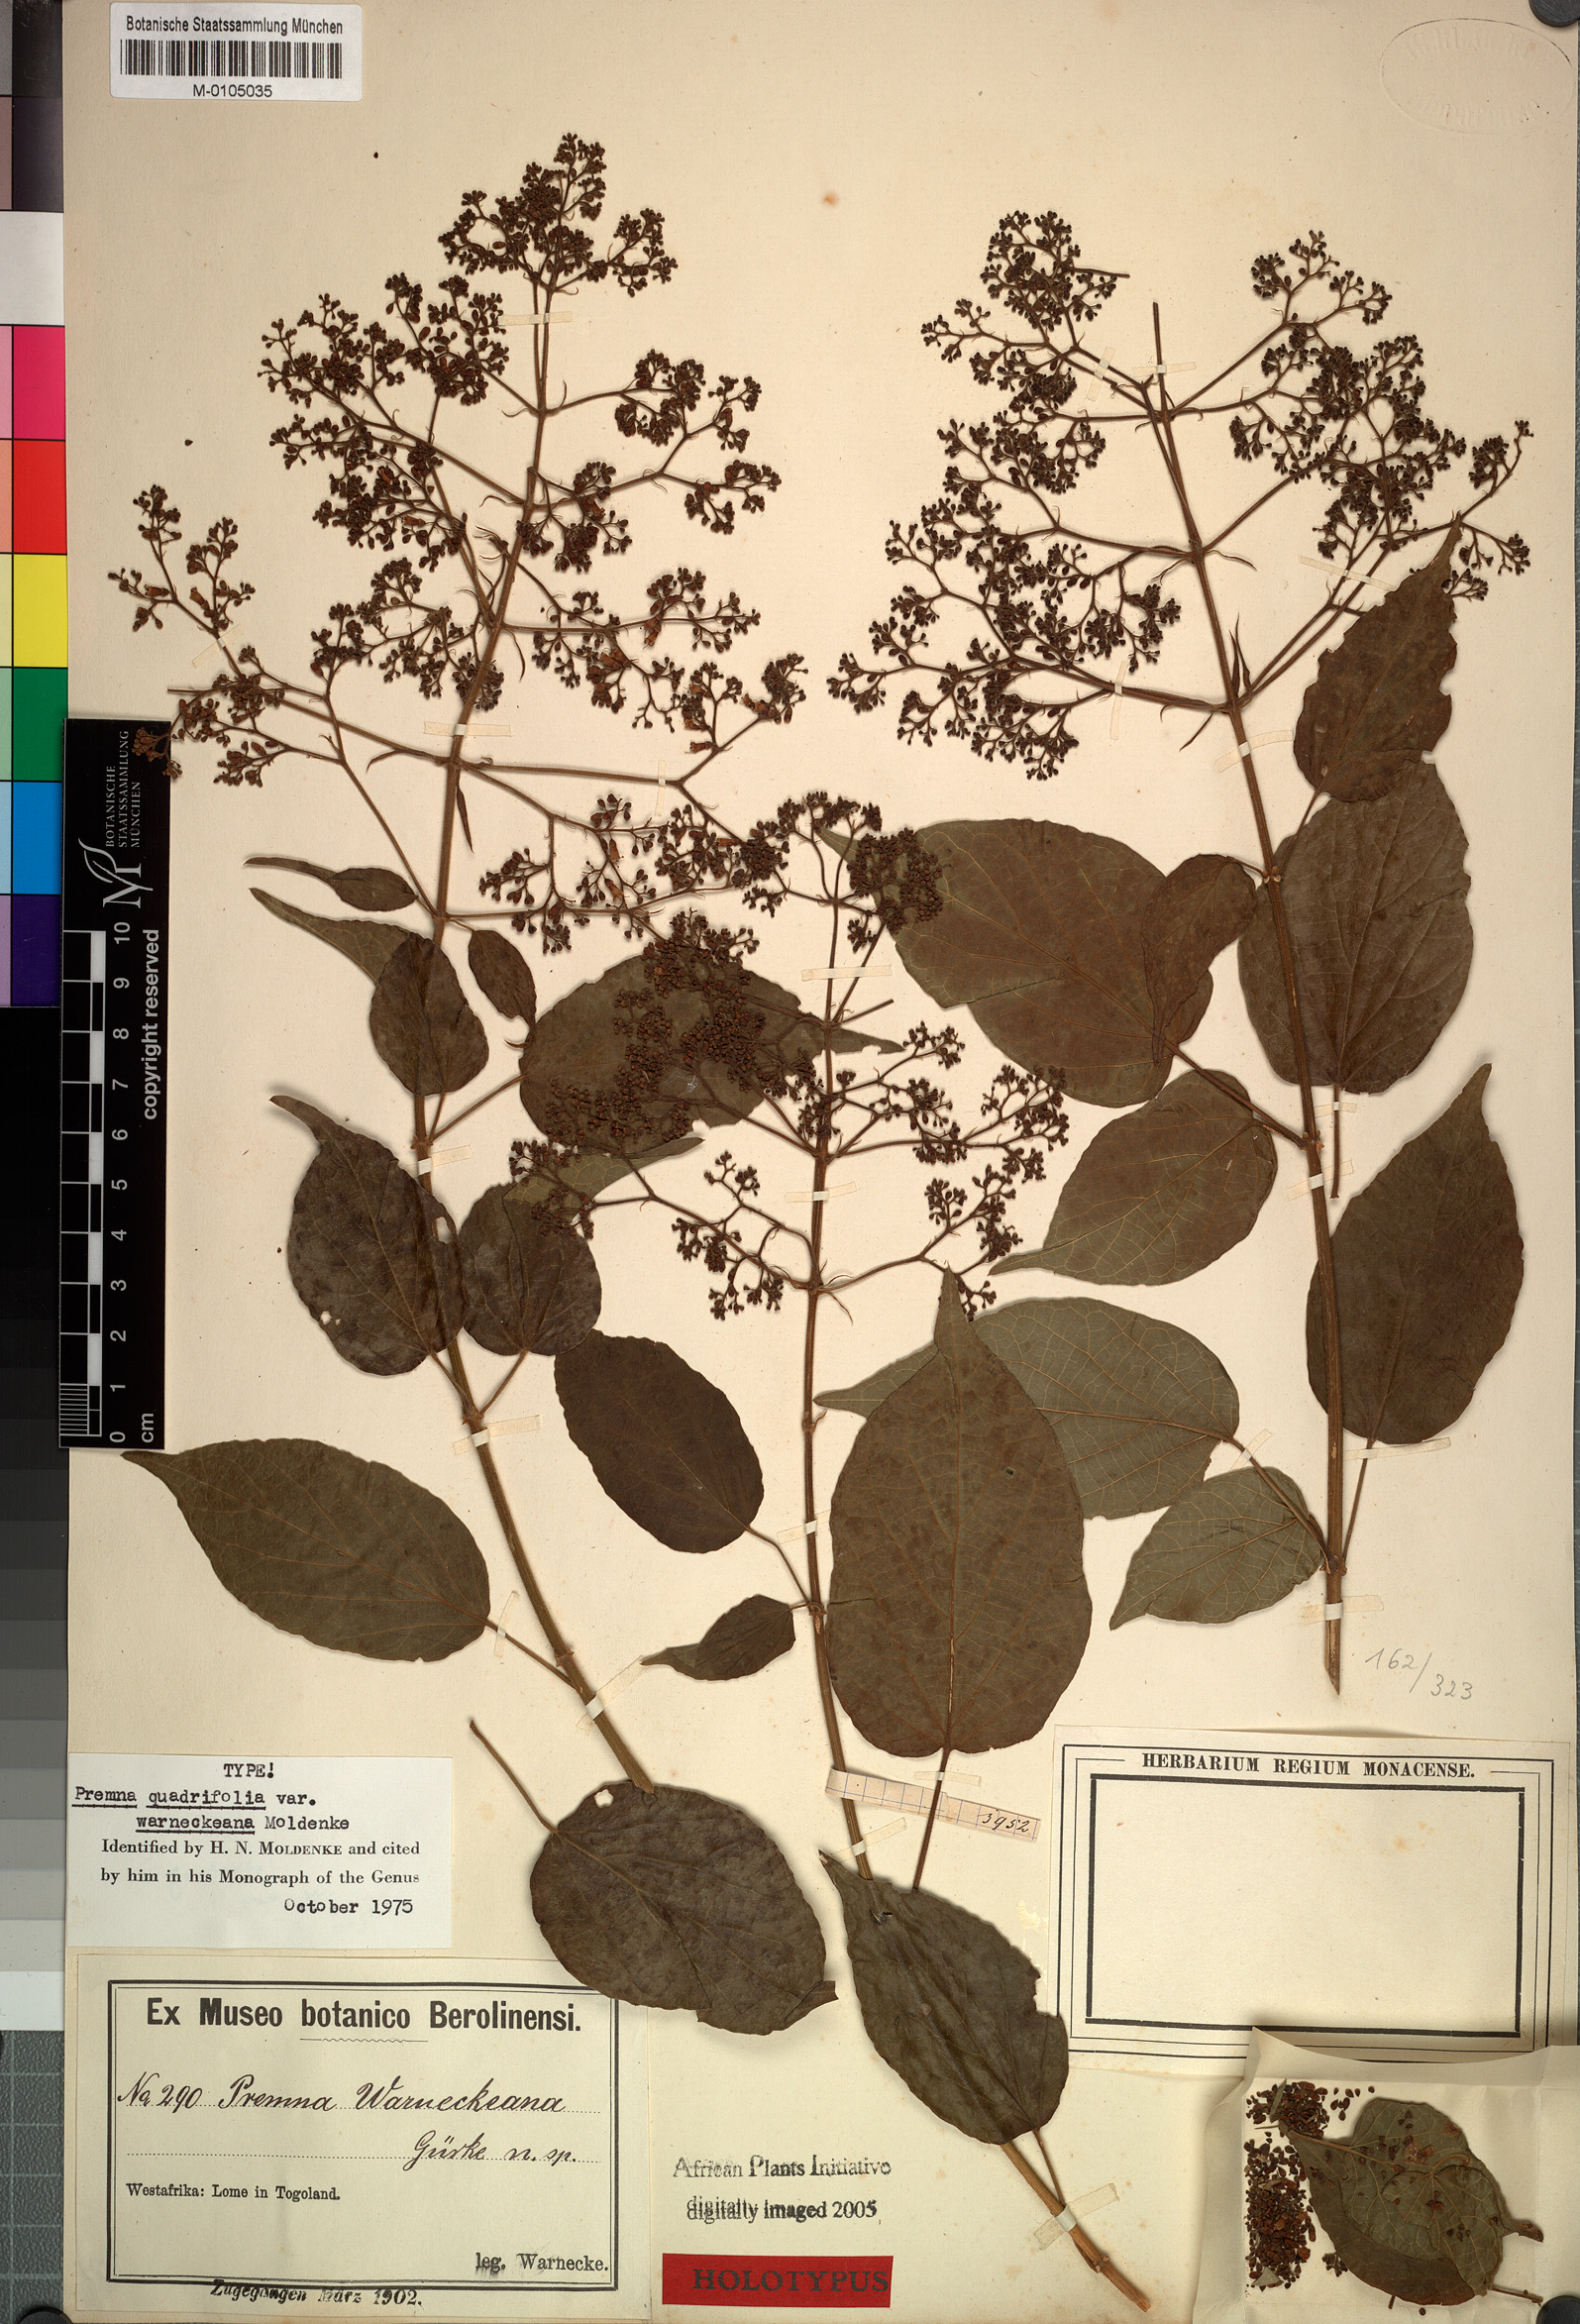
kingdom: Plantae
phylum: Tracheophyta
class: Magnoliopsida
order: Lamiales
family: Lamiaceae
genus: Premna
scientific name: Premna quadrifolia
